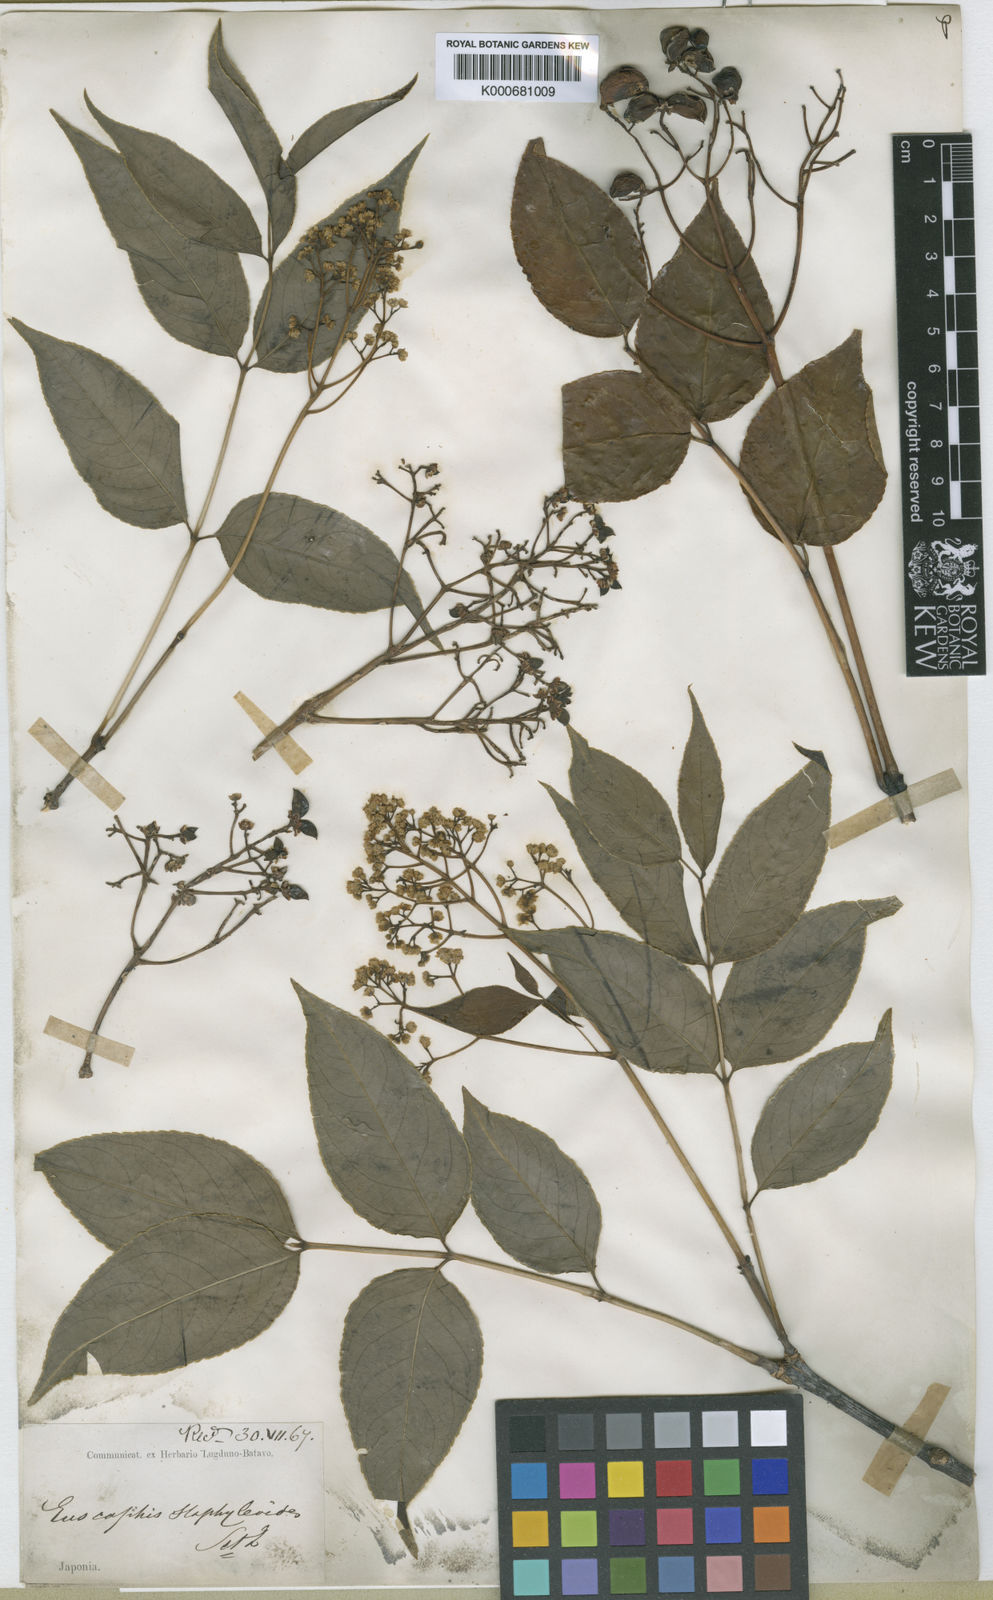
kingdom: Plantae
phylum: Tracheophyta
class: Magnoliopsida
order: Crossosomatales
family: Staphyleaceae
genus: Staphylea
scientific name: Staphylea japonica
